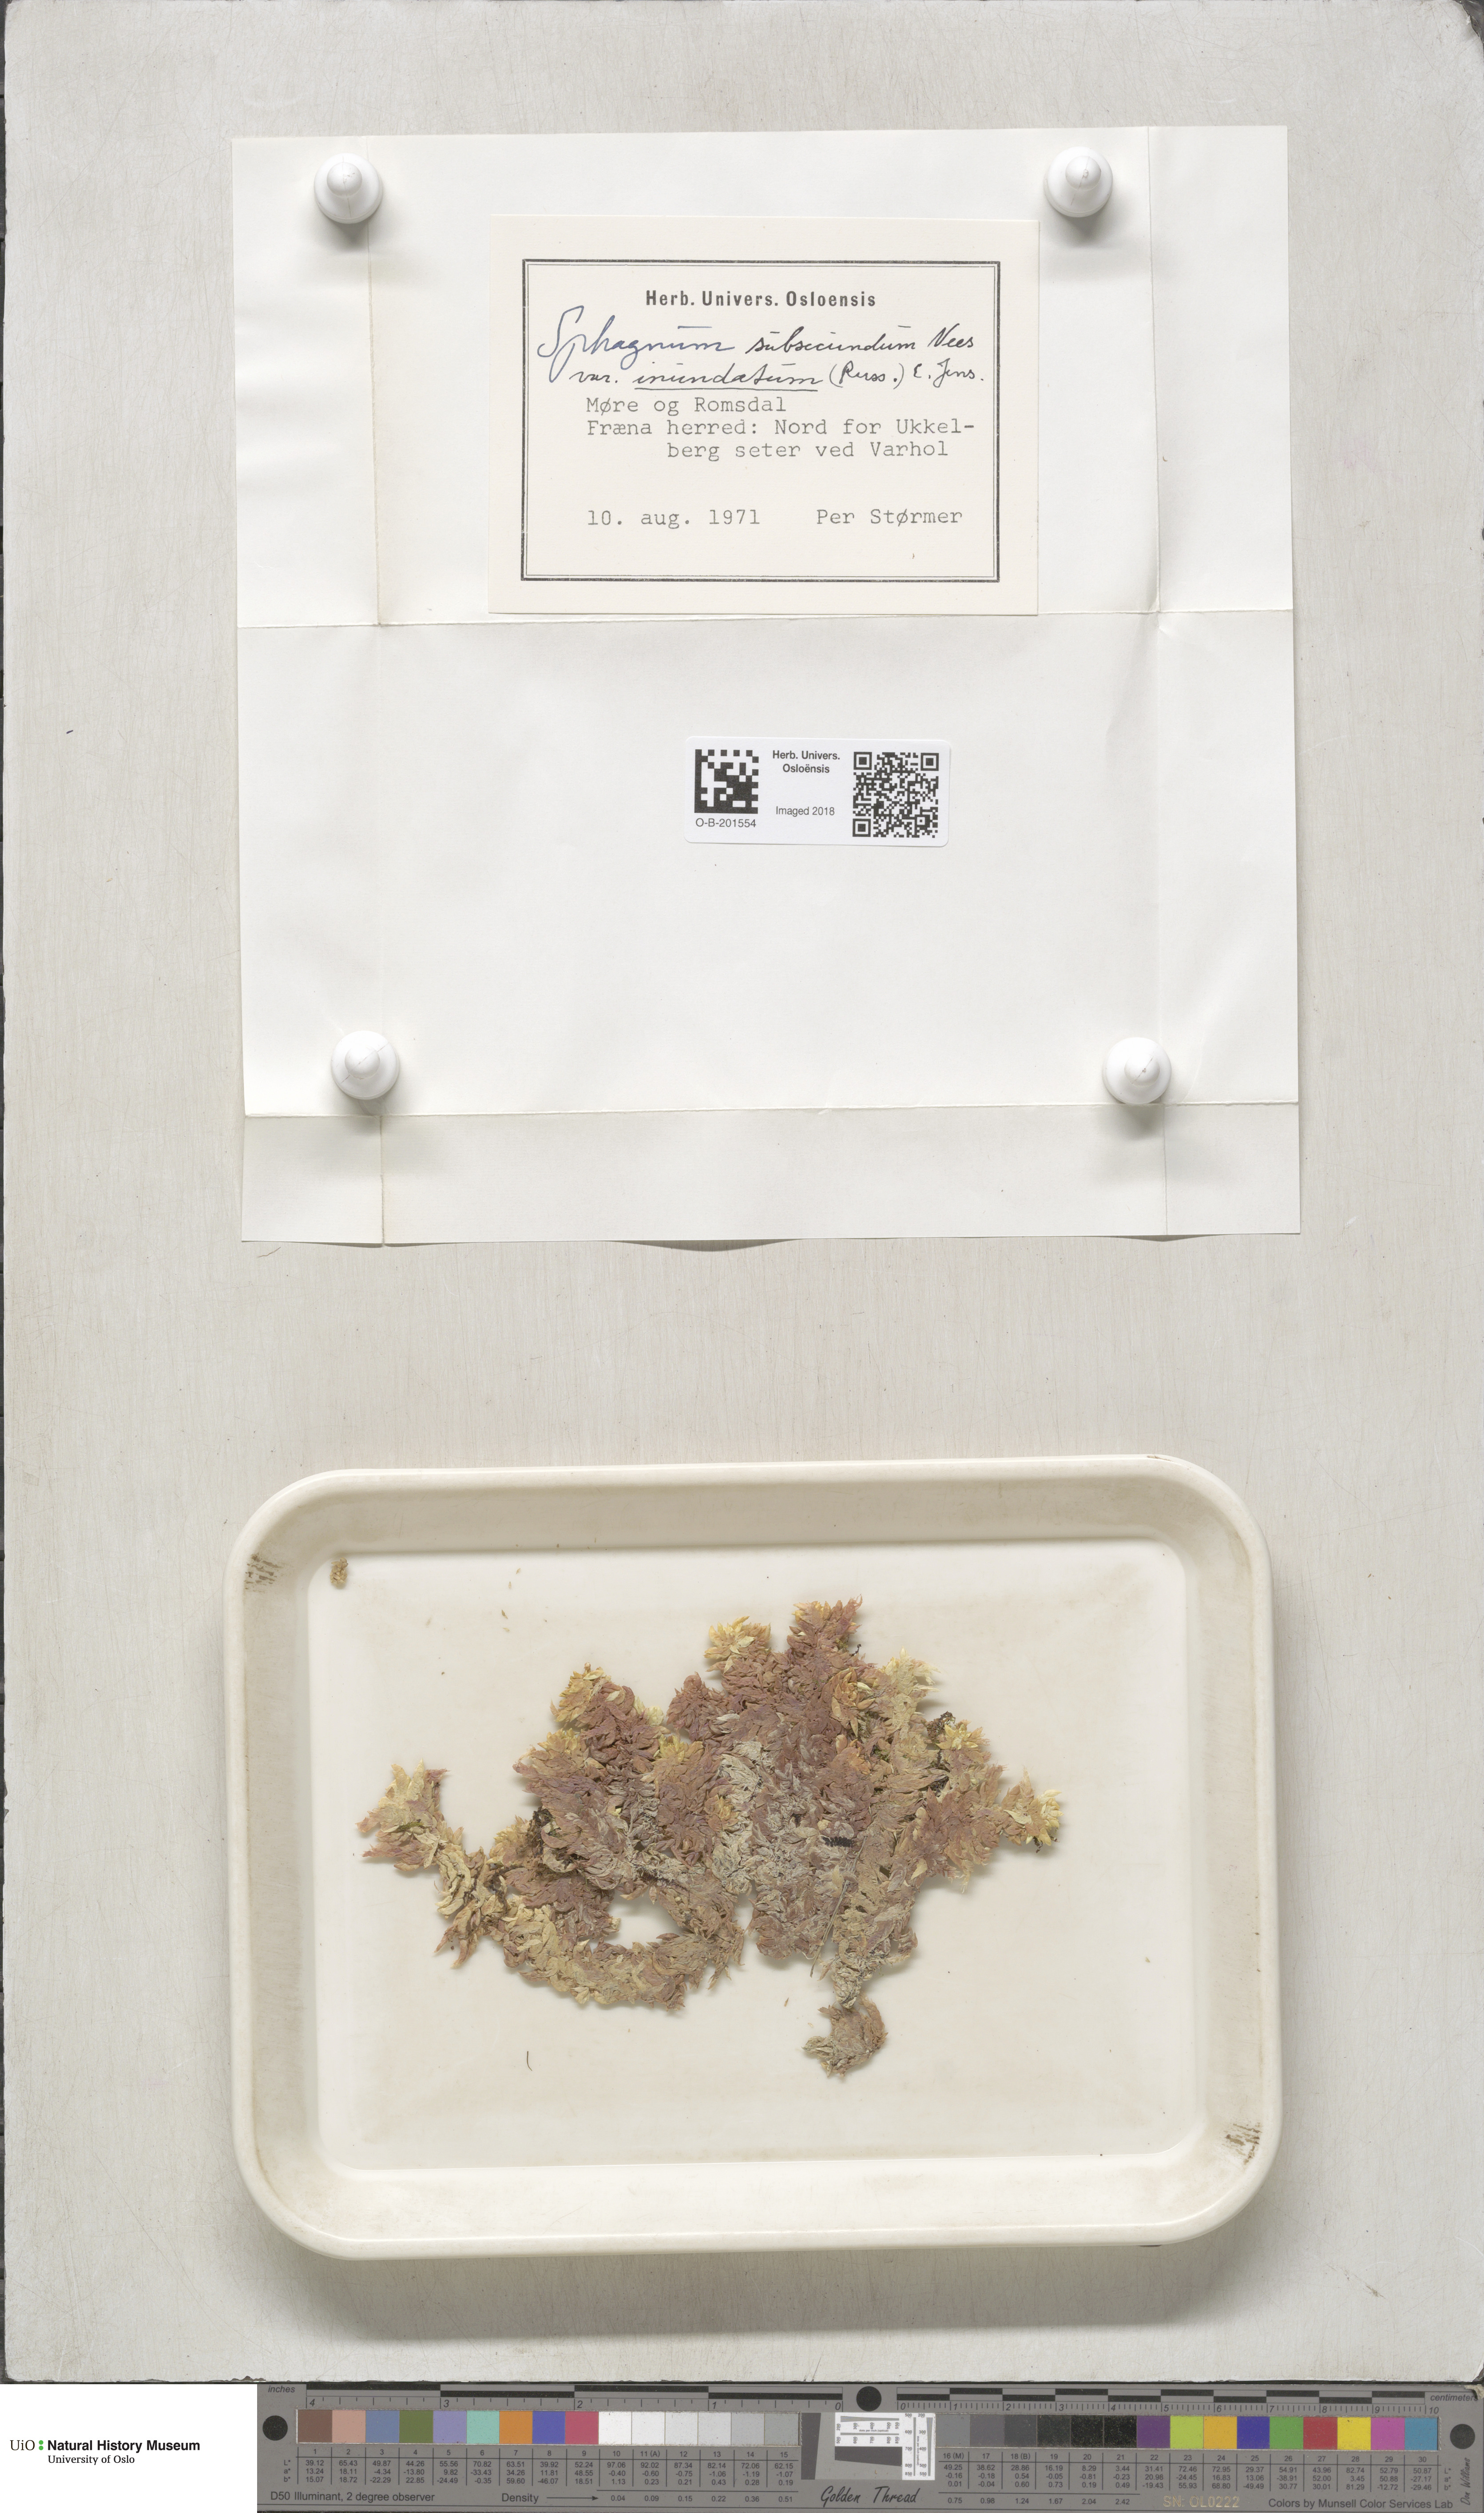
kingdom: Plantae
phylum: Bryophyta
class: Sphagnopsida
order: Sphagnales
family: Sphagnaceae
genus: Sphagnum
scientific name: Sphagnum inundatum
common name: Lesser cow-horn bog-moss
